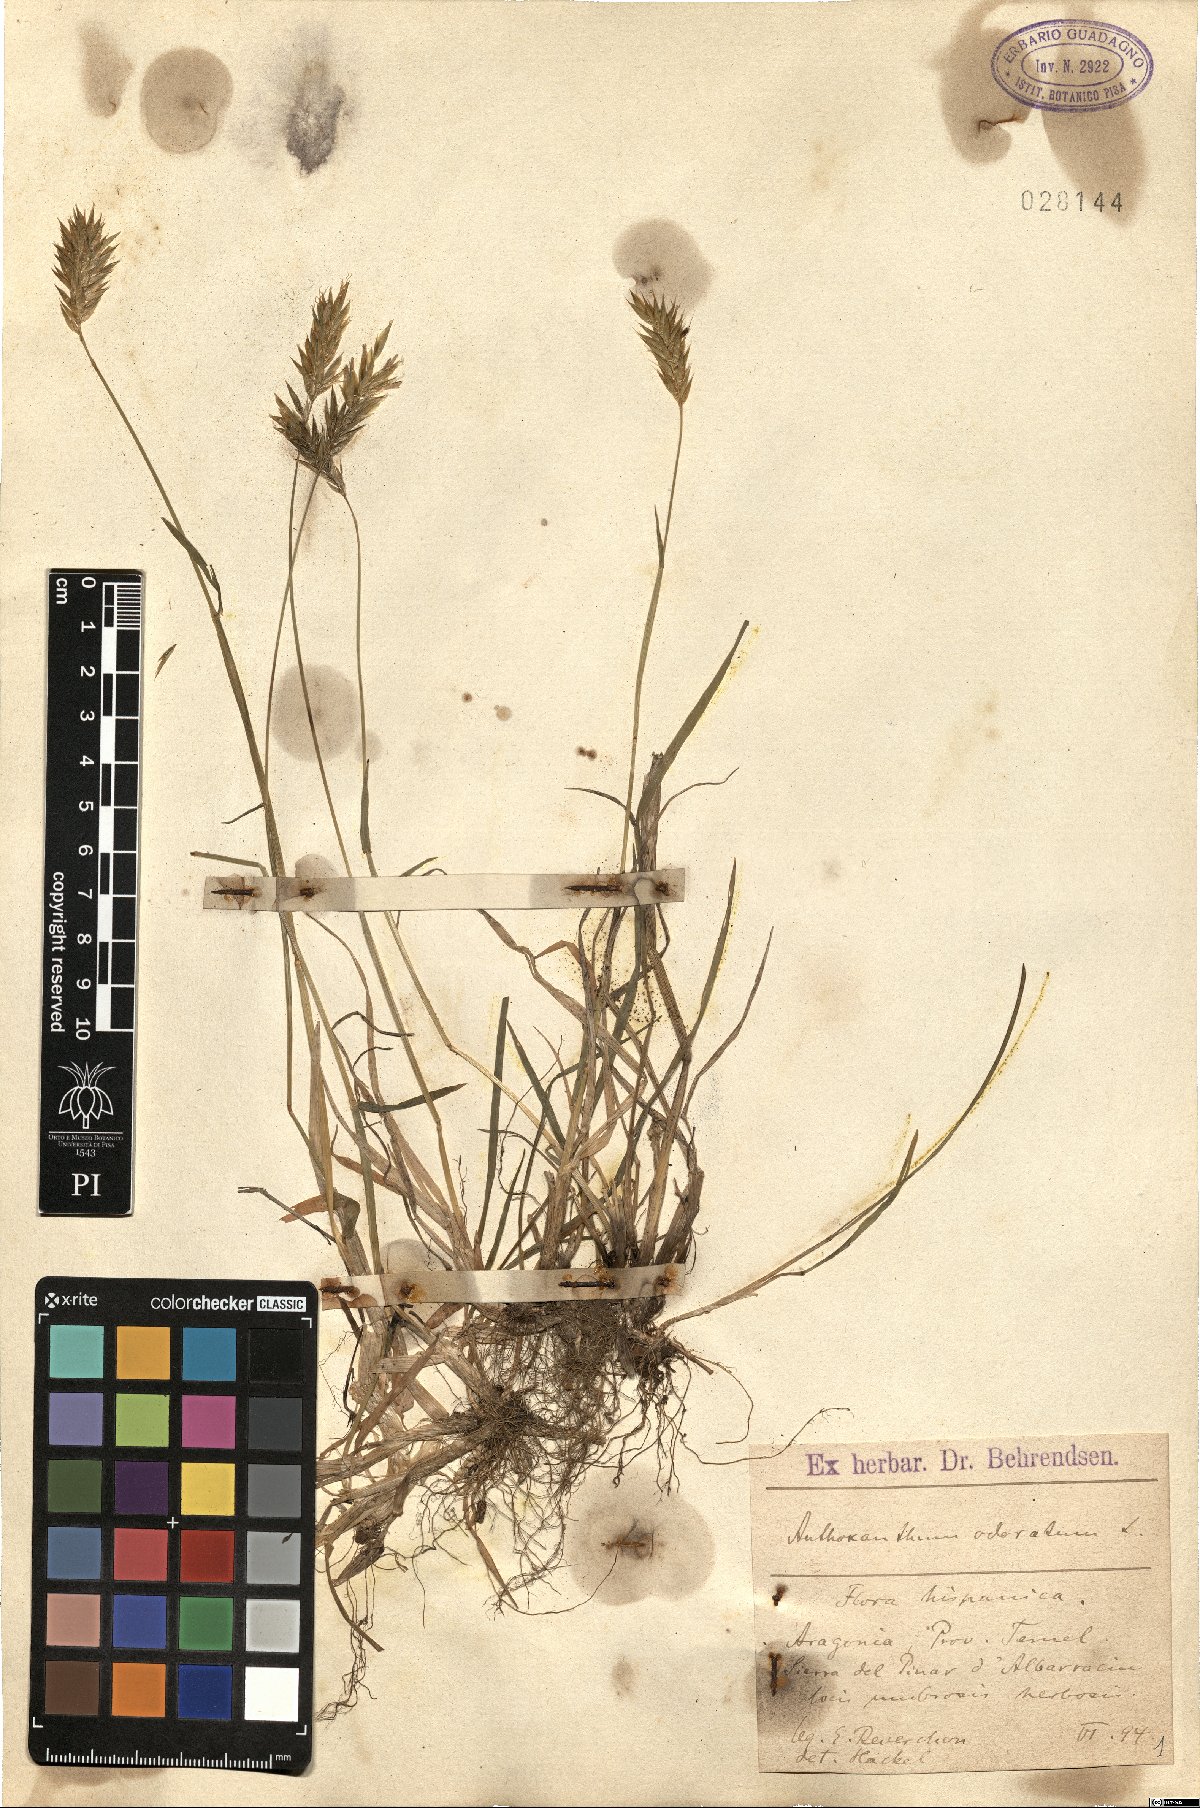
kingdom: Plantae
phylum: Tracheophyta
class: Liliopsida
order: Poales
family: Poaceae
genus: Anthoxanthum
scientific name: Anthoxanthum odoratum
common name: Sweet vernalgrass
